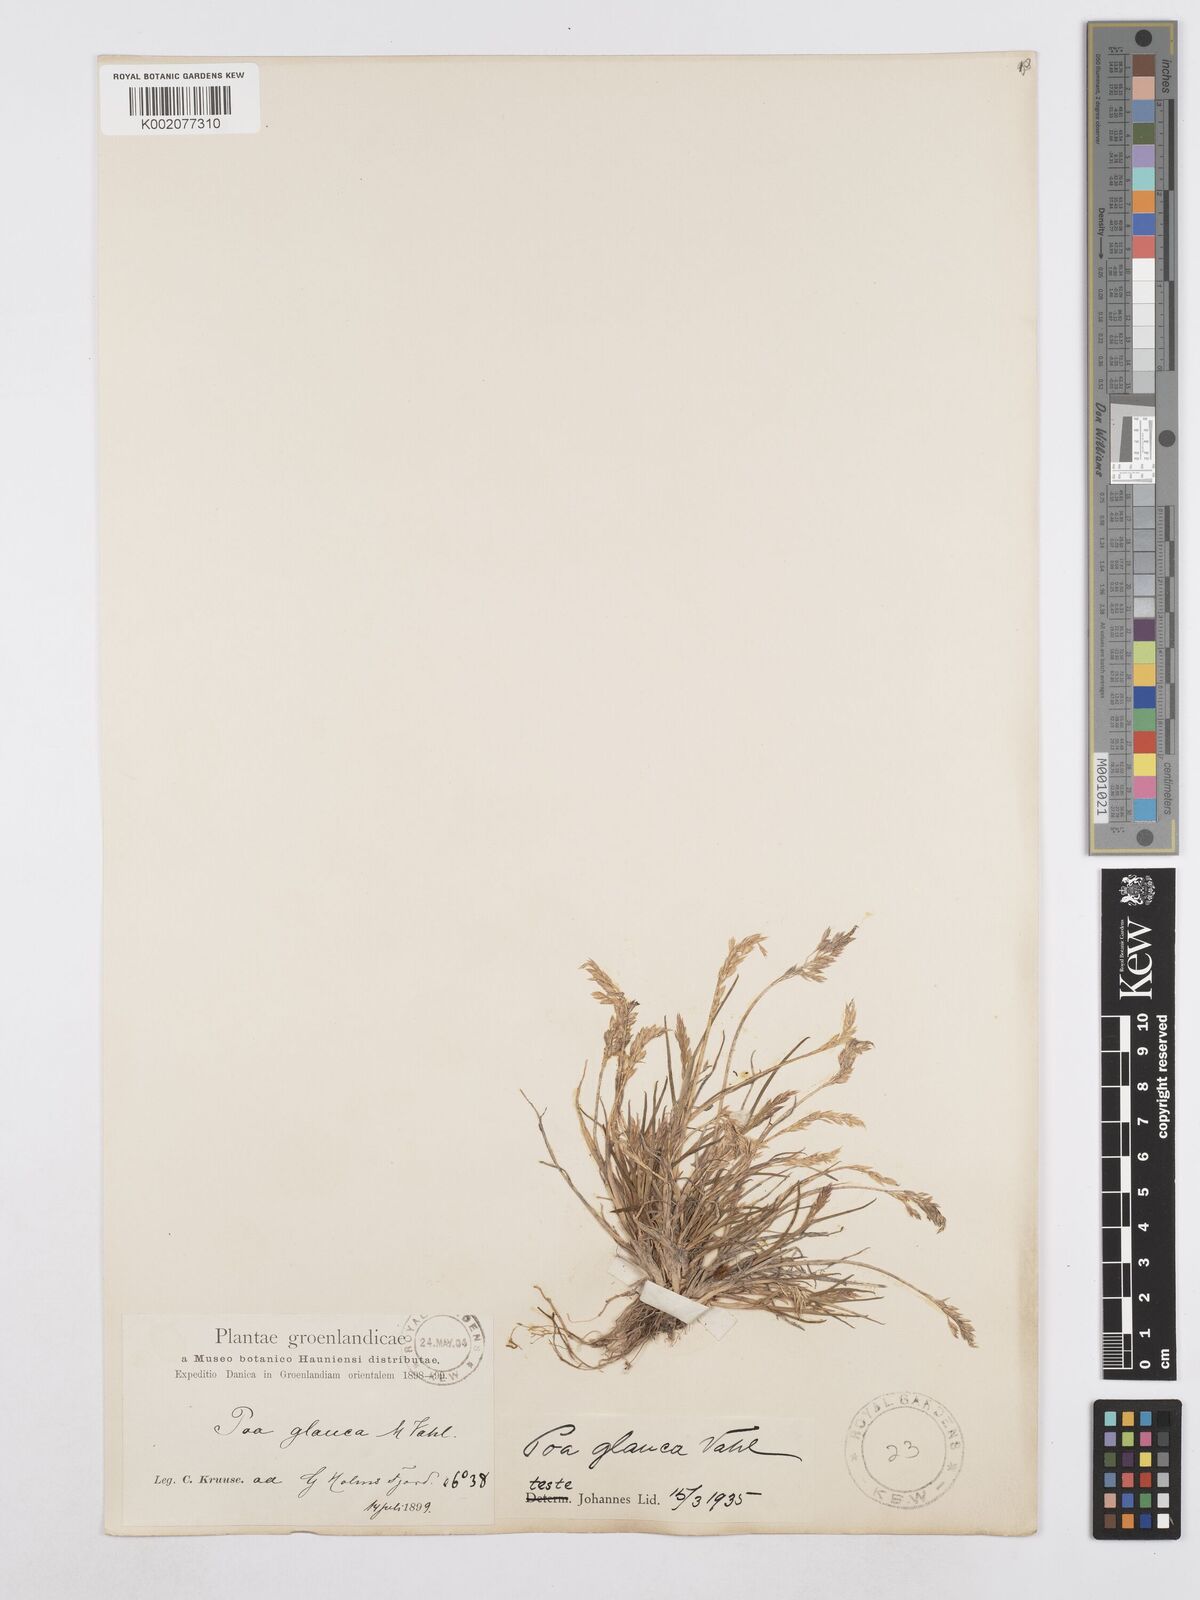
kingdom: Plantae
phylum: Tracheophyta
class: Liliopsida
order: Poales
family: Poaceae
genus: Poa
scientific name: Poa glauca
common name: Glaucous bluegrass
